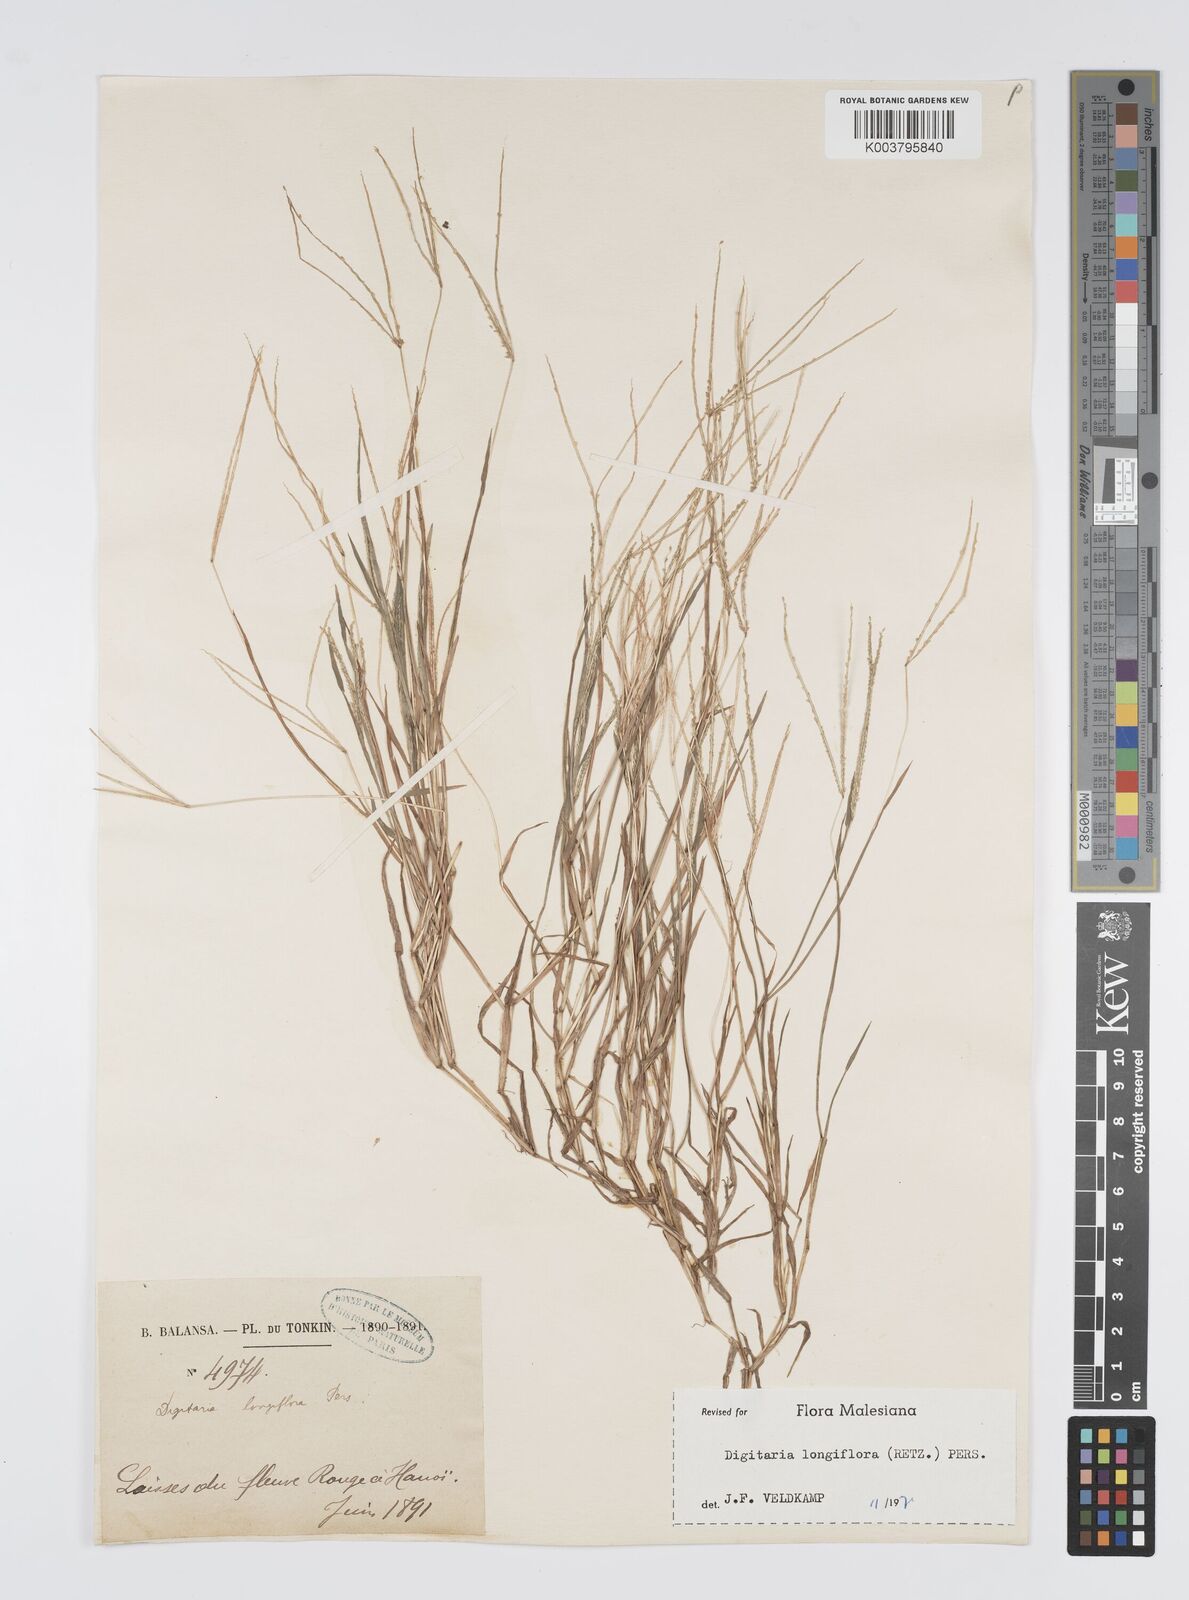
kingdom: Plantae
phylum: Tracheophyta
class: Liliopsida
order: Poales
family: Poaceae
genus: Digitaria
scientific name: Digitaria longiflora
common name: Wire crabgrass
